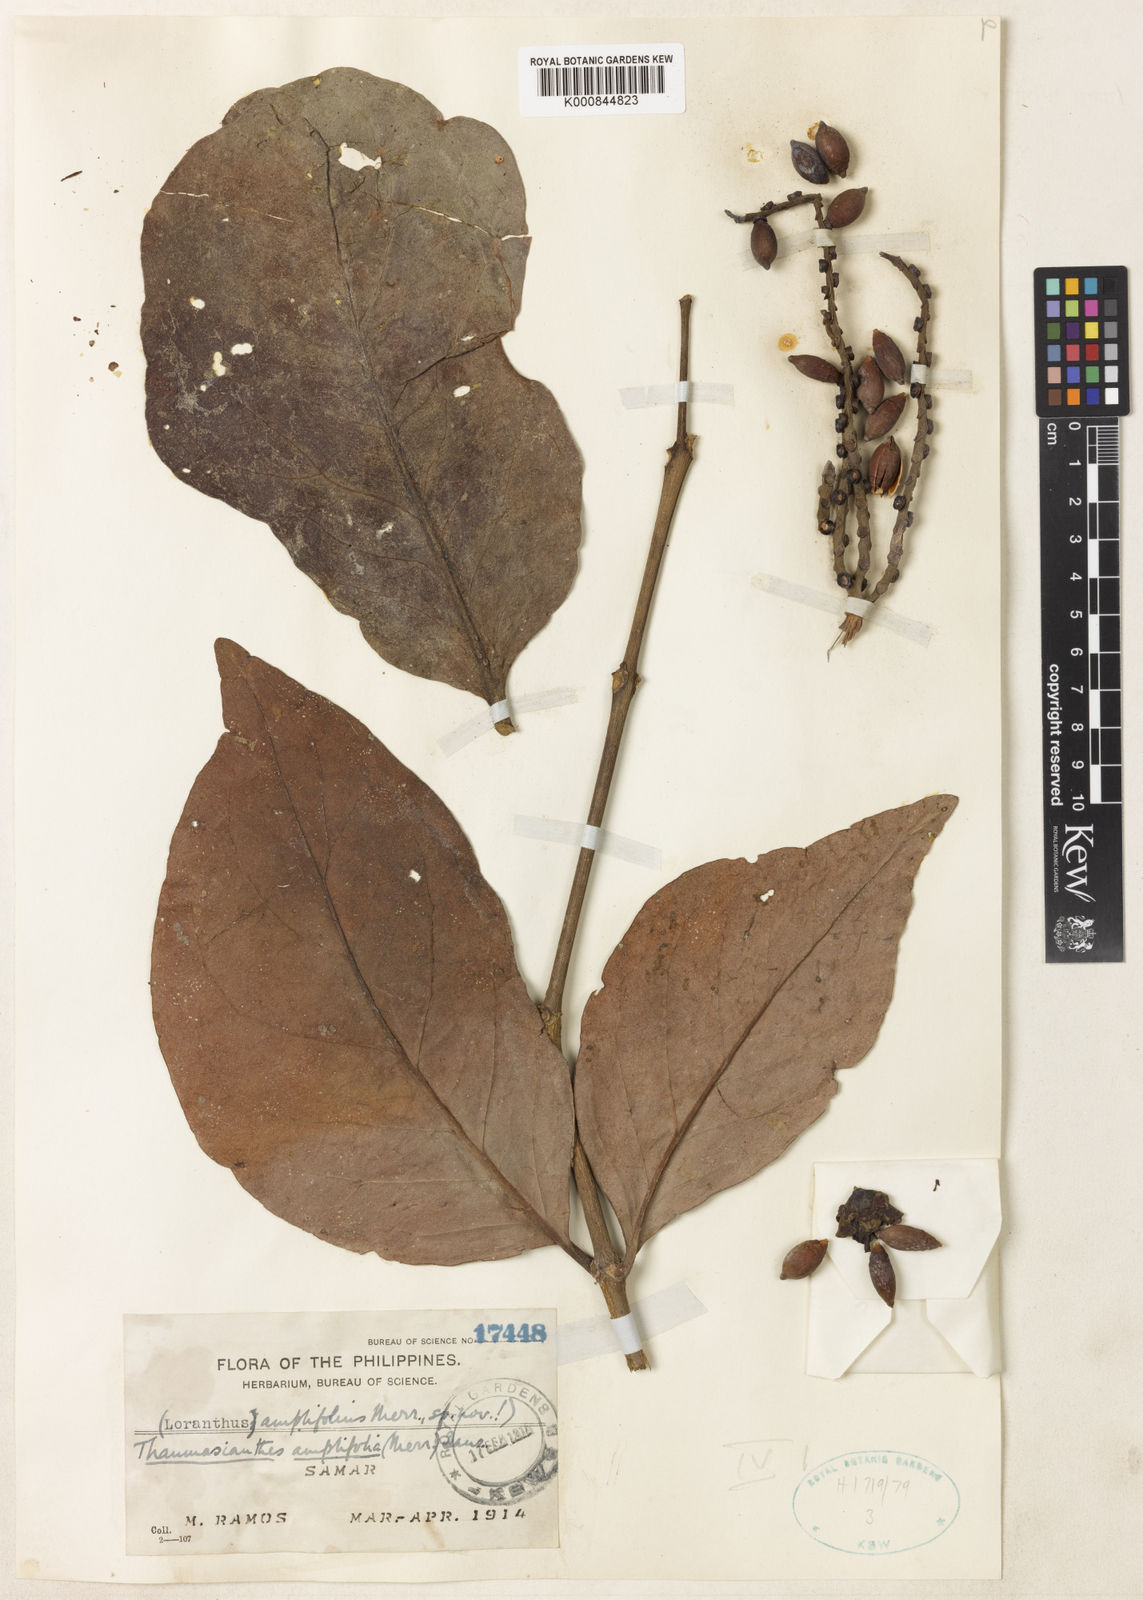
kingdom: Plantae
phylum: Tracheophyta
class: Magnoliopsida
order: Santalales
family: Loranthaceae
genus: Thaumasianthes
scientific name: Thaumasianthes amplifolia
